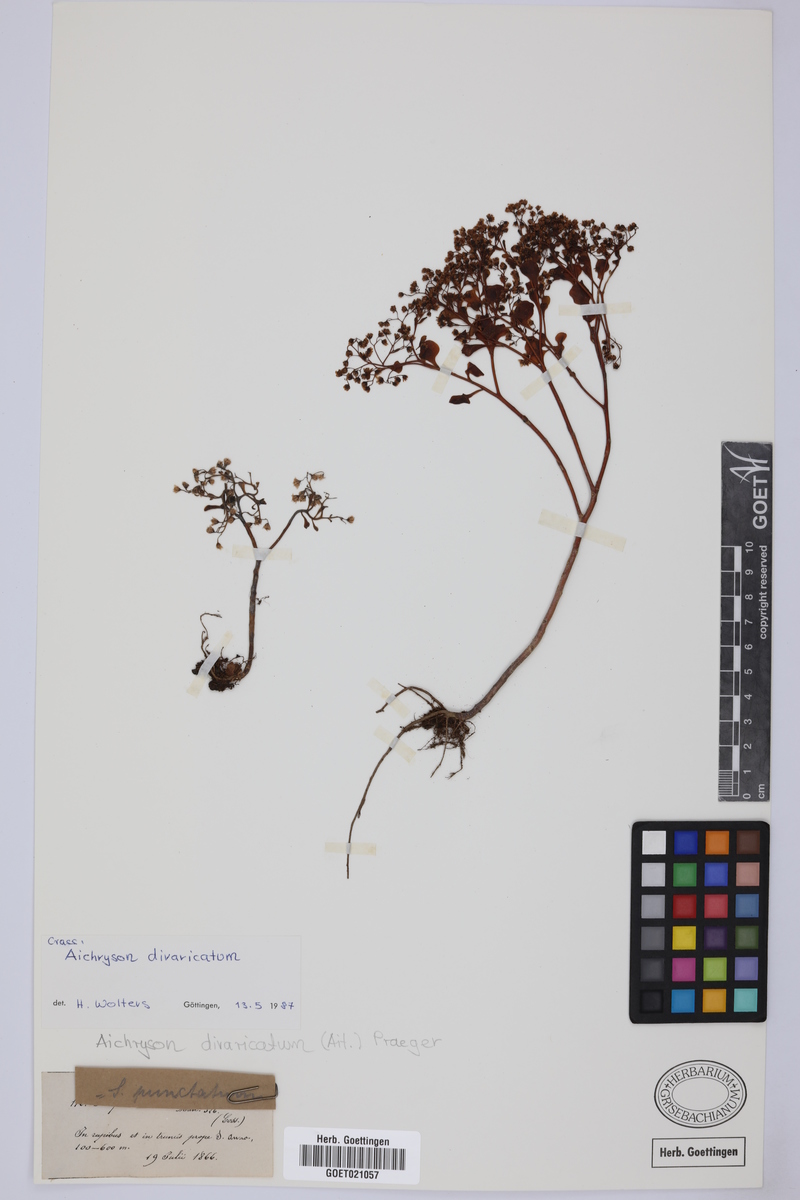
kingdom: Plantae
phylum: Tracheophyta
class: Magnoliopsida
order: Saxifragales
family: Crassulaceae
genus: Aichryson
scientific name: Aichryson divaricatum
